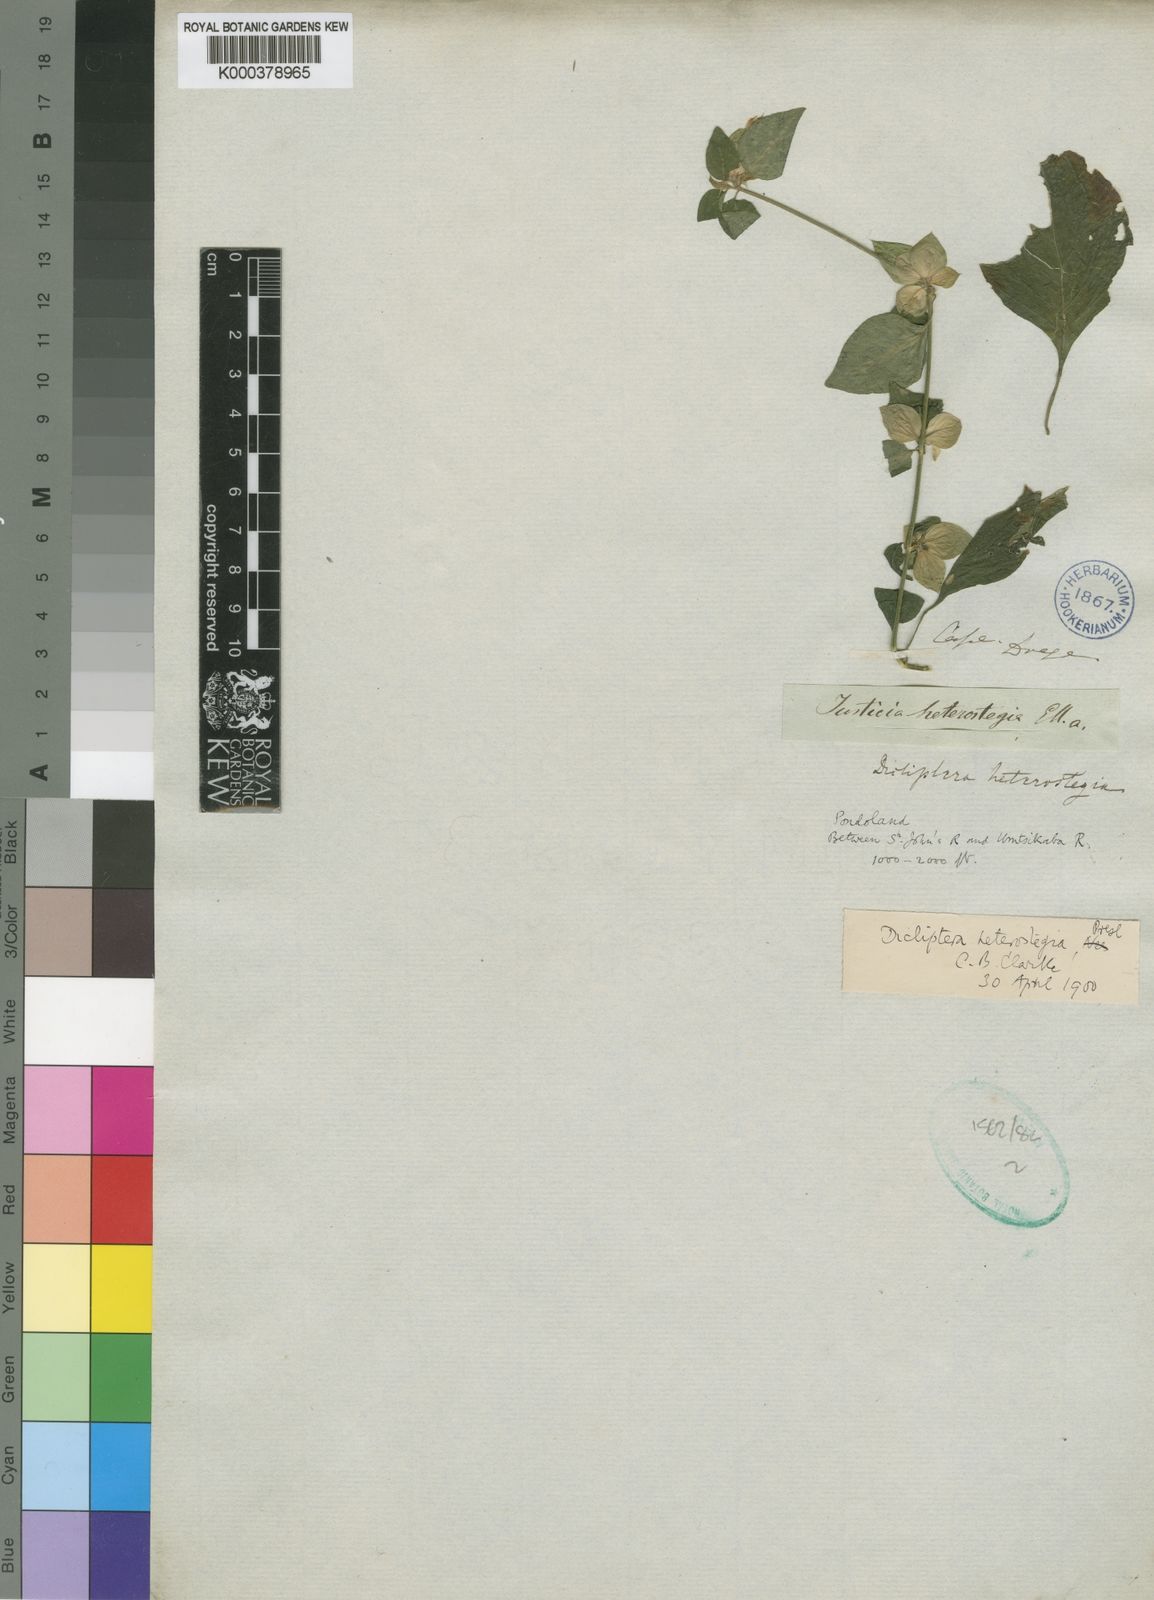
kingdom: Plantae
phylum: Tracheophyta
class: Magnoliopsida
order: Lamiales
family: Acanthaceae
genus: Dicliptera
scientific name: Dicliptera heterostegia
